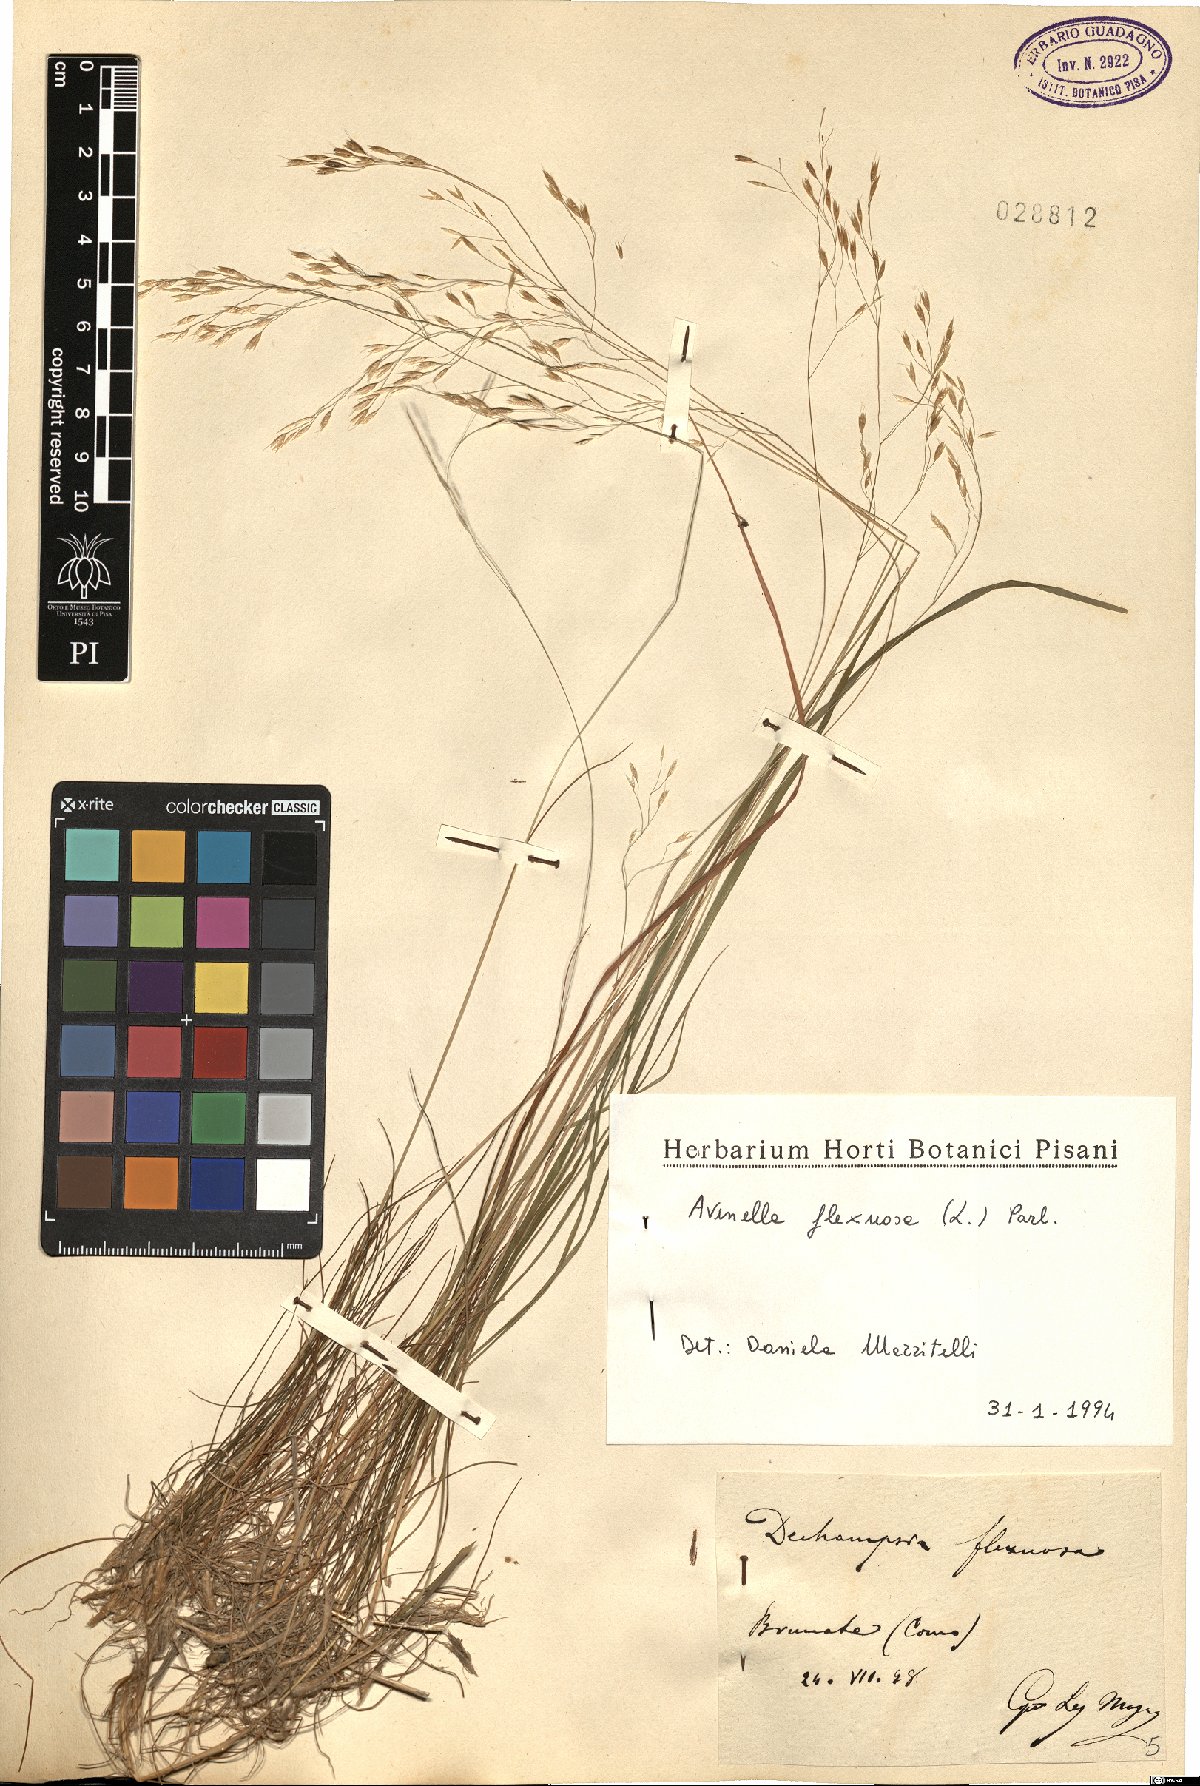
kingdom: Plantae
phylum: Tracheophyta
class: Liliopsida
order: Poales
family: Poaceae
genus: Avenella
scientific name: Avenella flexuosa
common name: Wavy hairgrass
